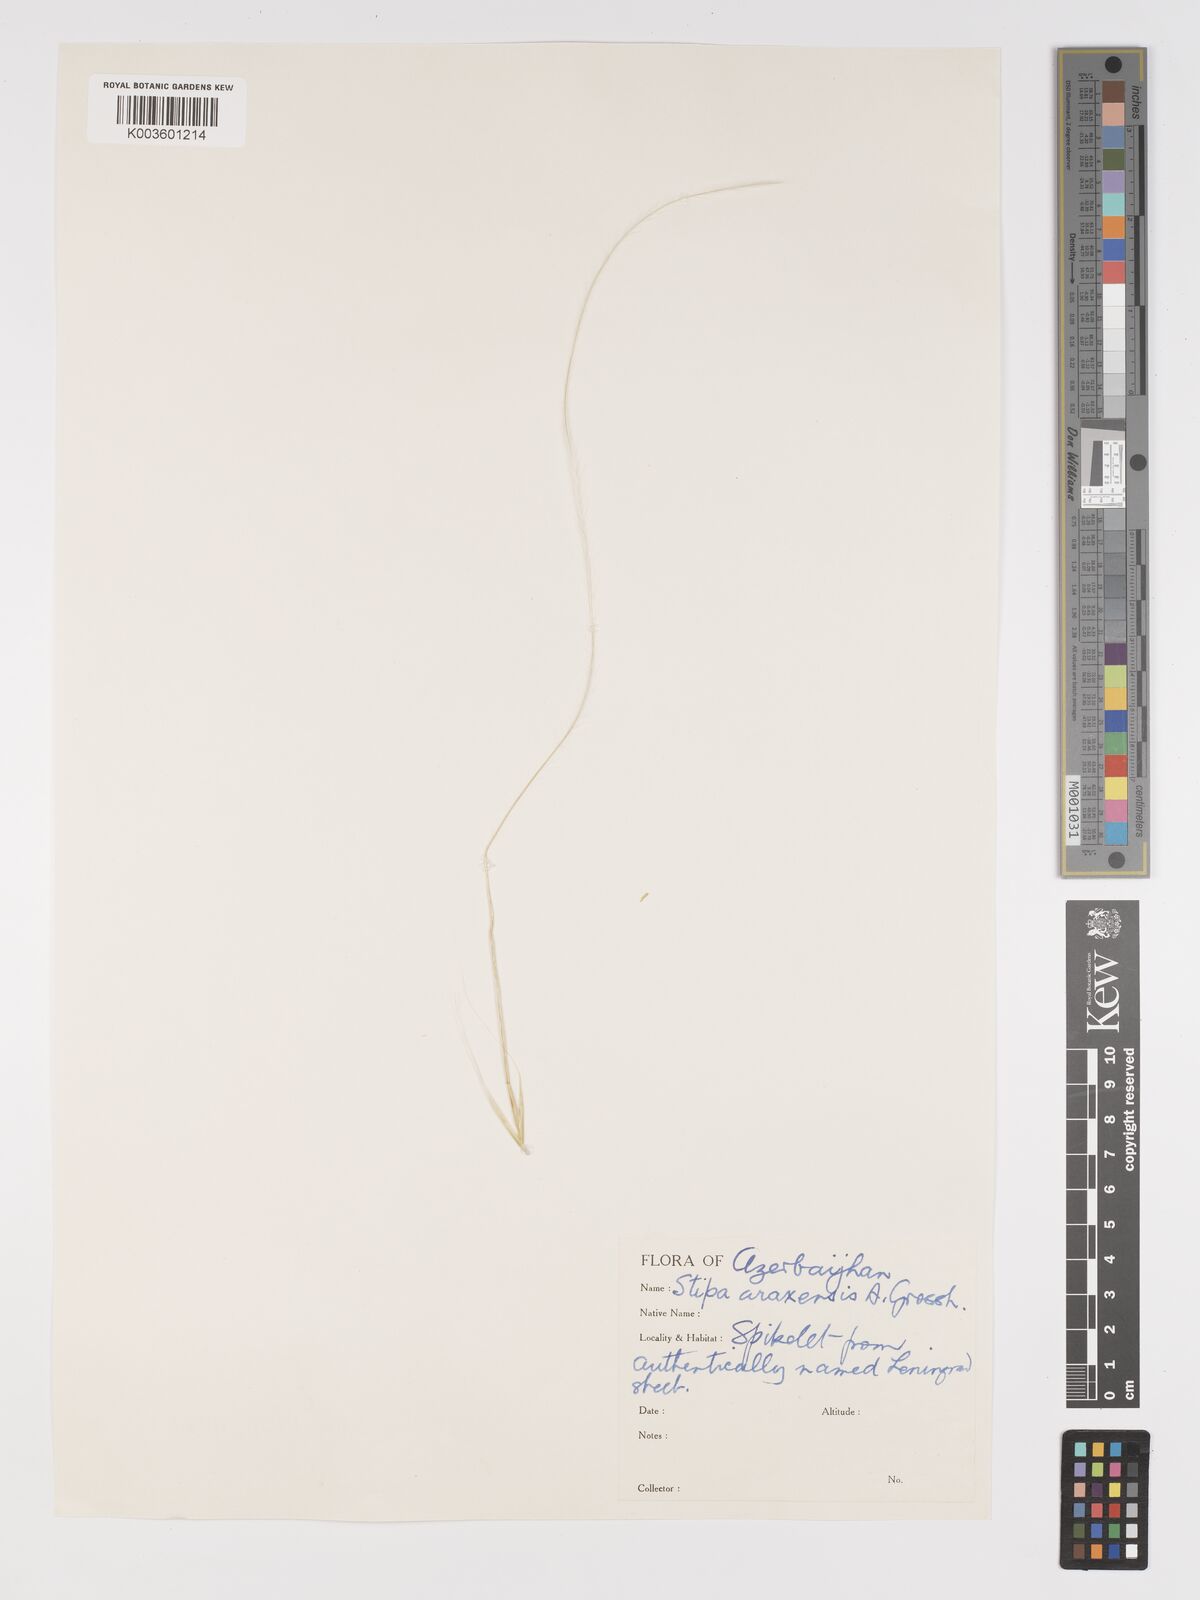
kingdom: Plantae
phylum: Tracheophyta
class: Liliopsida
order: Poales
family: Poaceae
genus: Stipa
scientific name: Stipa pulcherrima
